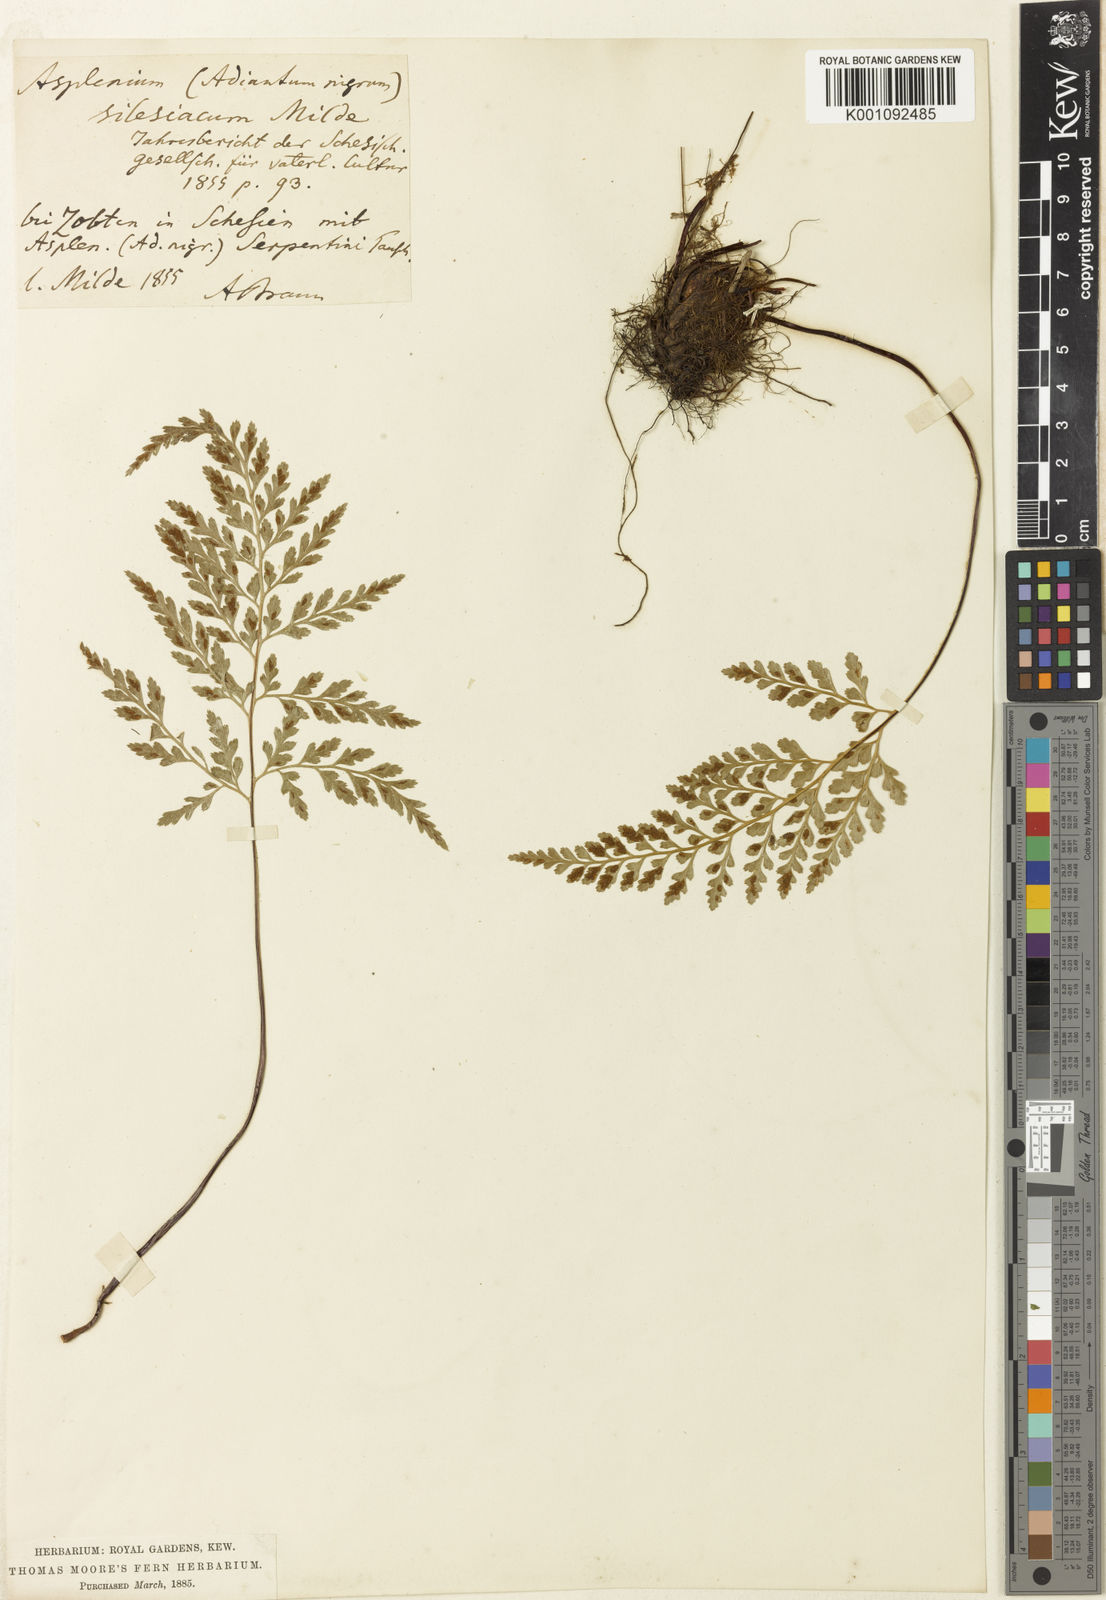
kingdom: Plantae
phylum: Tracheophyta
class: Polypodiopsida
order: Polypodiales
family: Aspleniaceae
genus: Asplenium
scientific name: Asplenium adiantum-nigrum
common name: Black spleenwort
